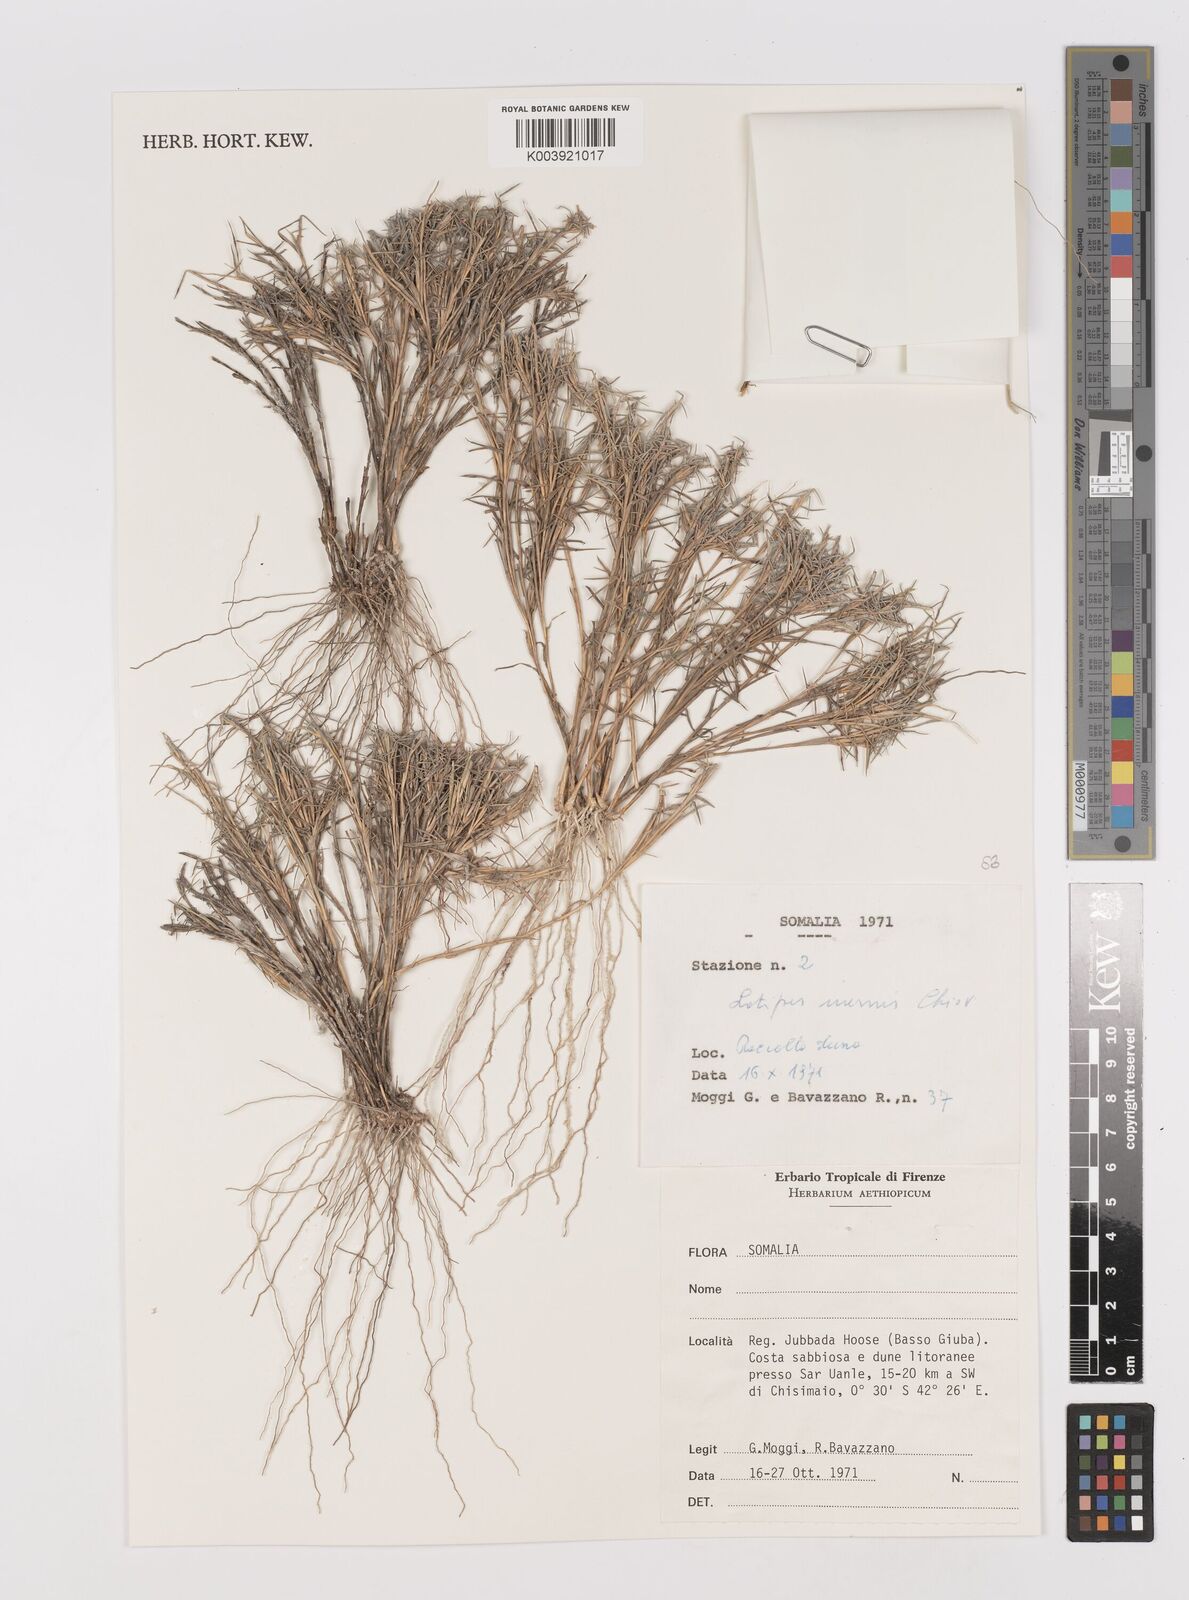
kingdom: Plantae
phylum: Tracheophyta
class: Liliopsida
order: Poales
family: Poaceae
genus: Leptothrium
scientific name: Leptothrium senegalense
